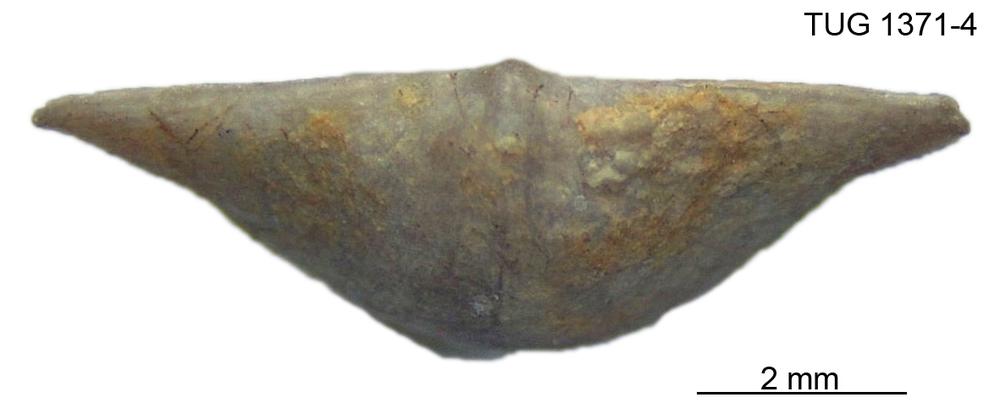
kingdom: Animalia
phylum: Brachiopoda
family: Sowerbyellidae
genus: Eochonetes
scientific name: Eochonetes
